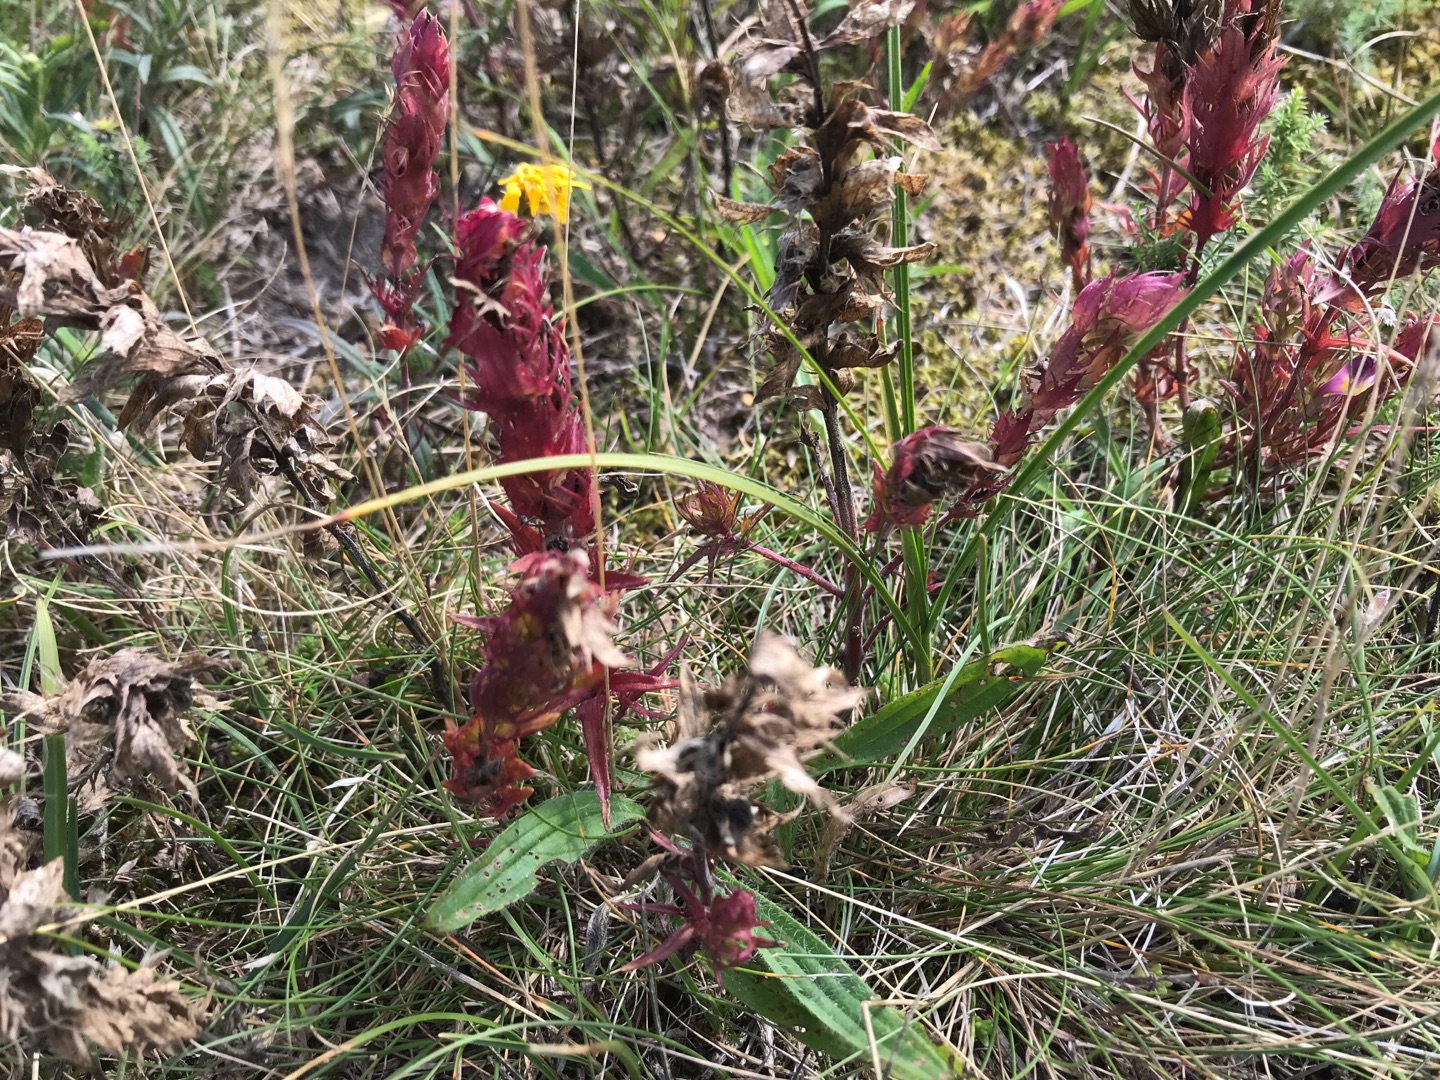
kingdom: Plantae
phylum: Tracheophyta
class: Magnoliopsida
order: Lamiales
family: Orobanchaceae
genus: Melampyrum
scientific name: Melampyrum arvense
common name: Ager-kohvede
